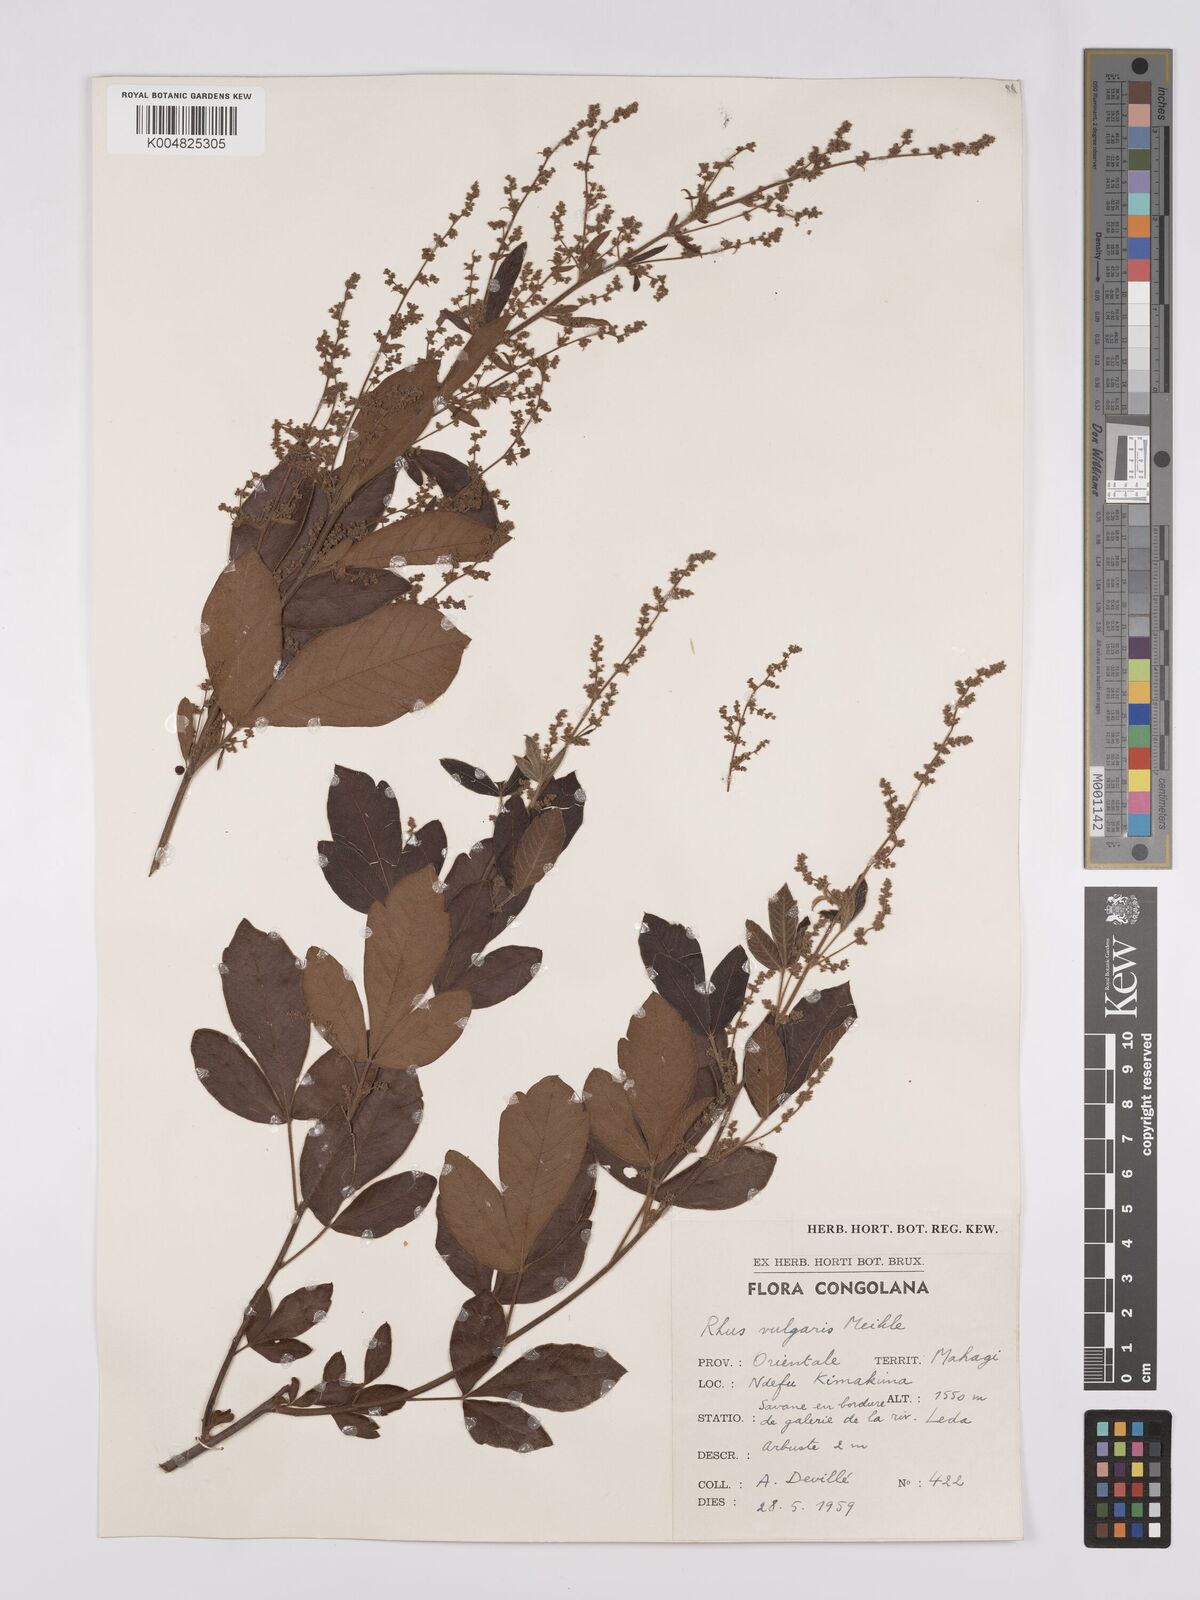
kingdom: Plantae
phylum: Tracheophyta
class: Magnoliopsida
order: Sapindales
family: Anacardiaceae
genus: Rhus
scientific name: Rhus
